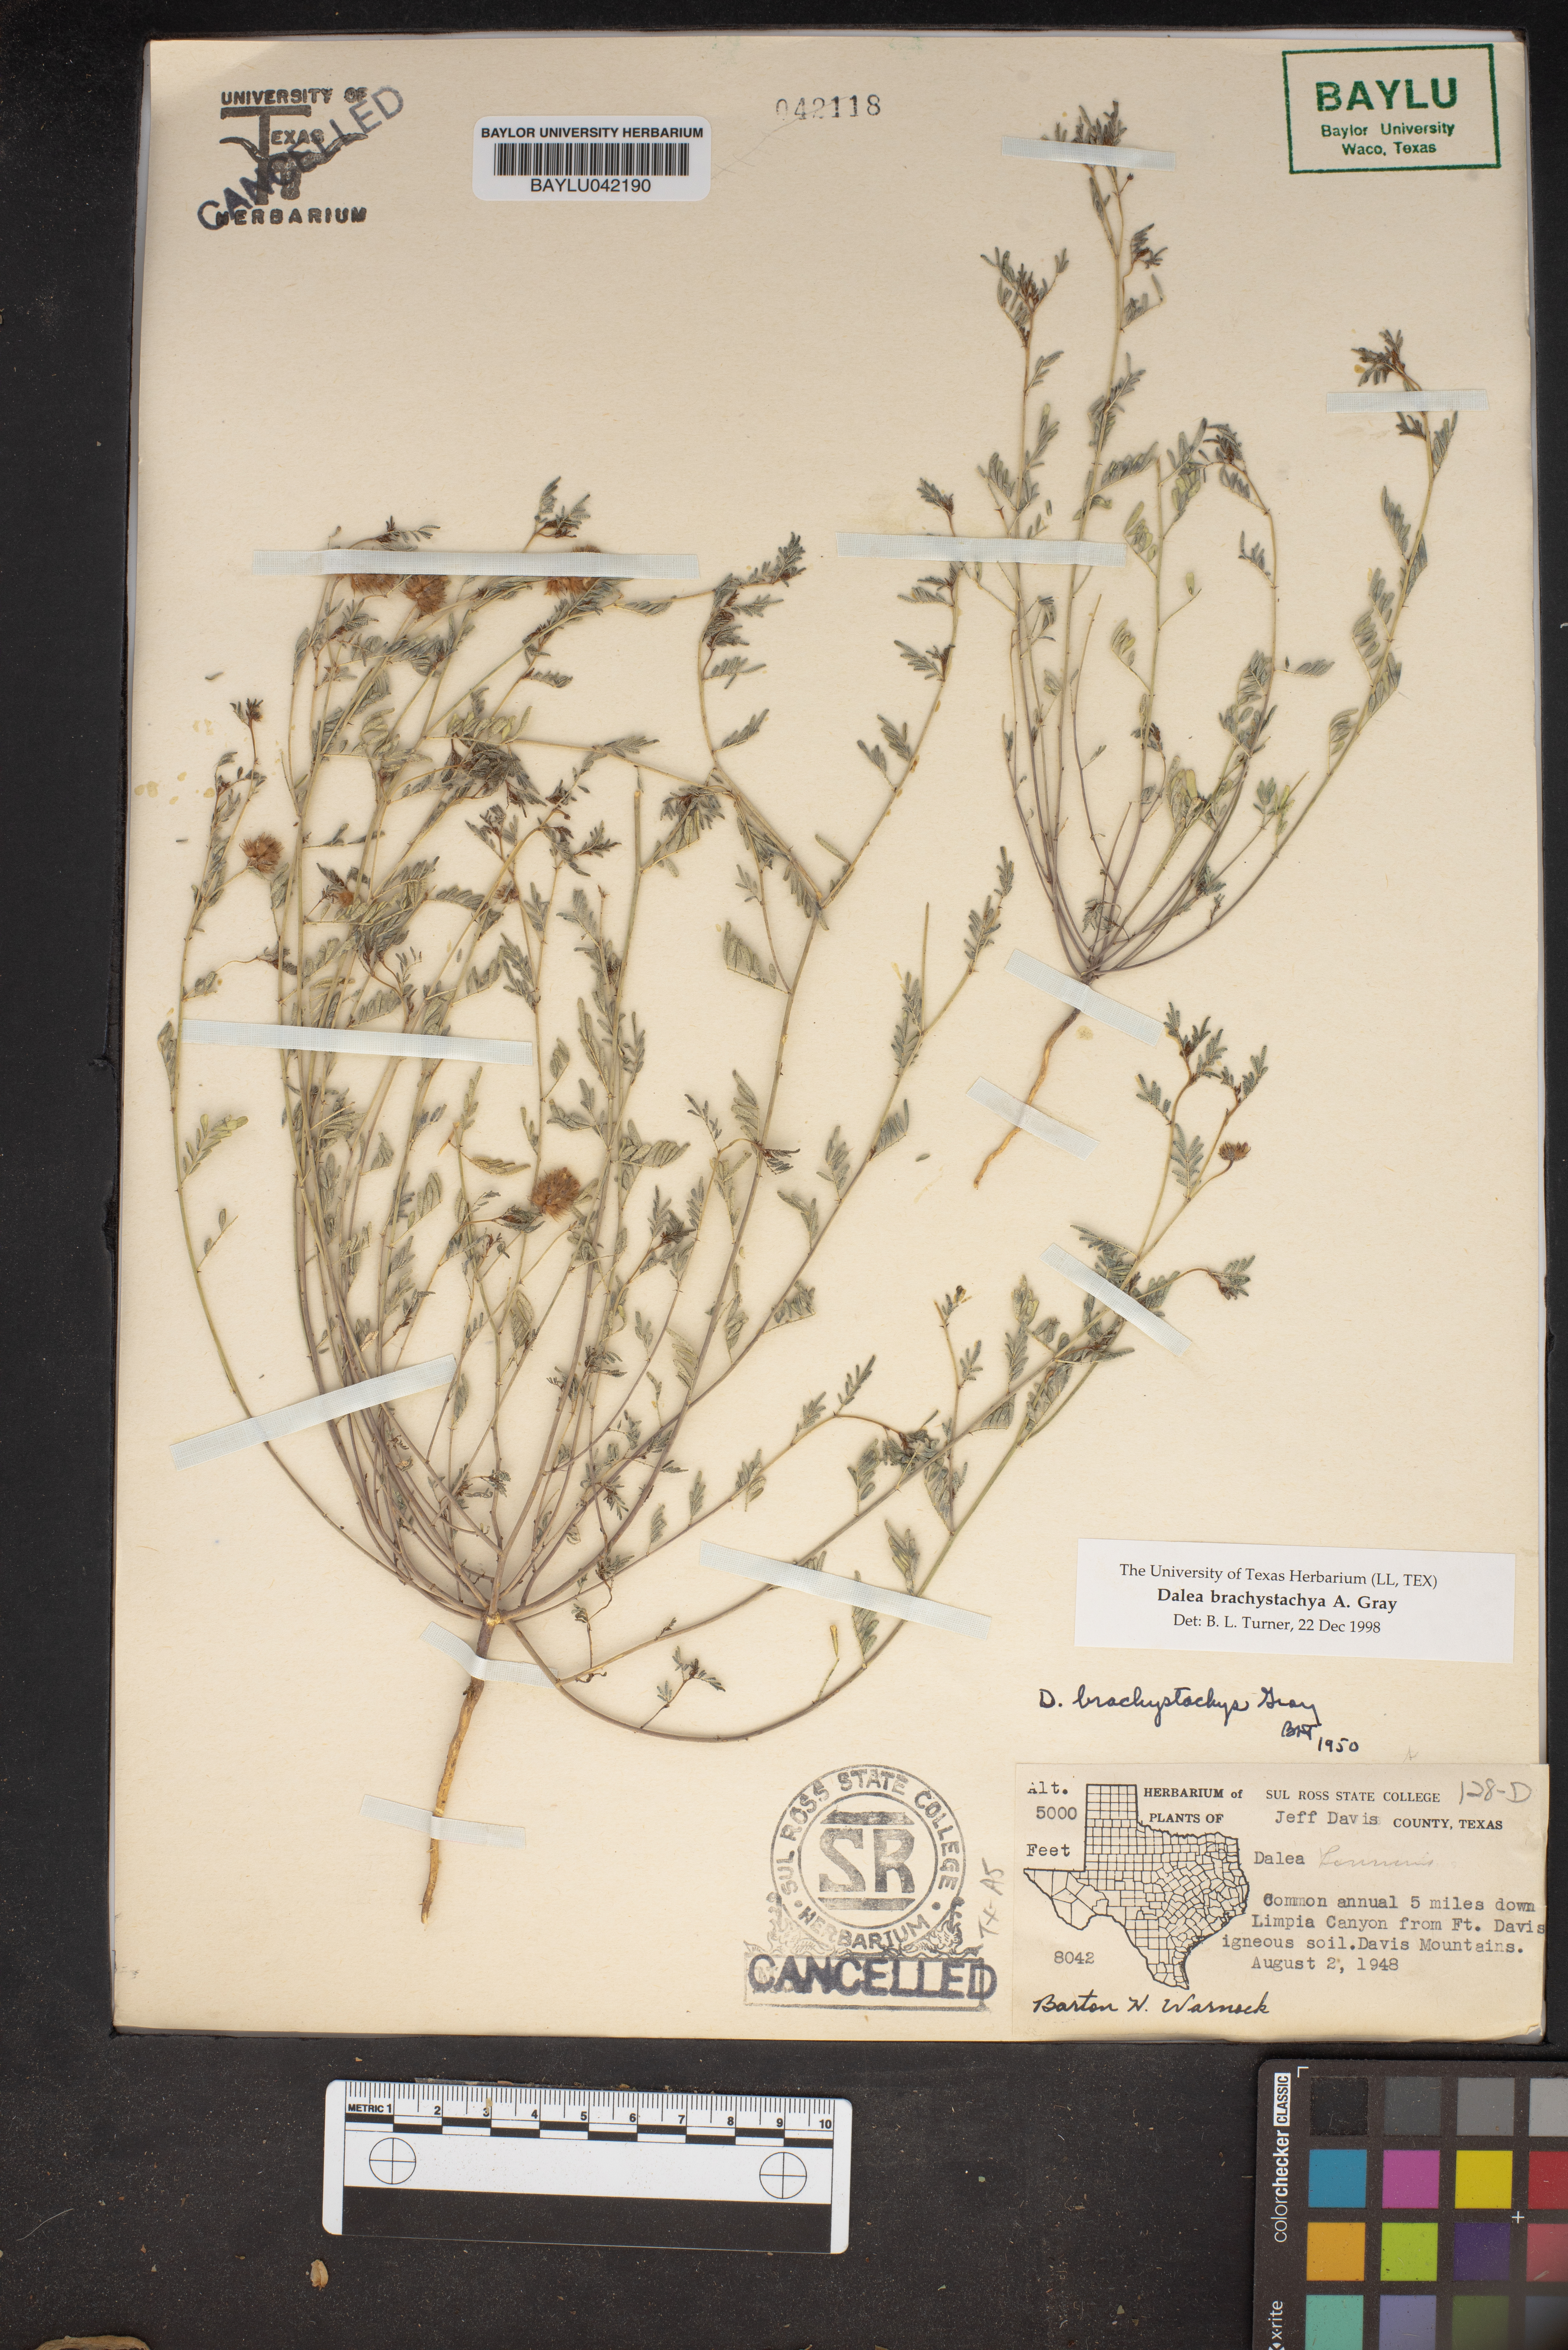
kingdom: Plantae
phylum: Tracheophyta
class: Magnoliopsida
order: Fabales
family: Fabaceae
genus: Dalea
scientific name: Dalea brachystachya
